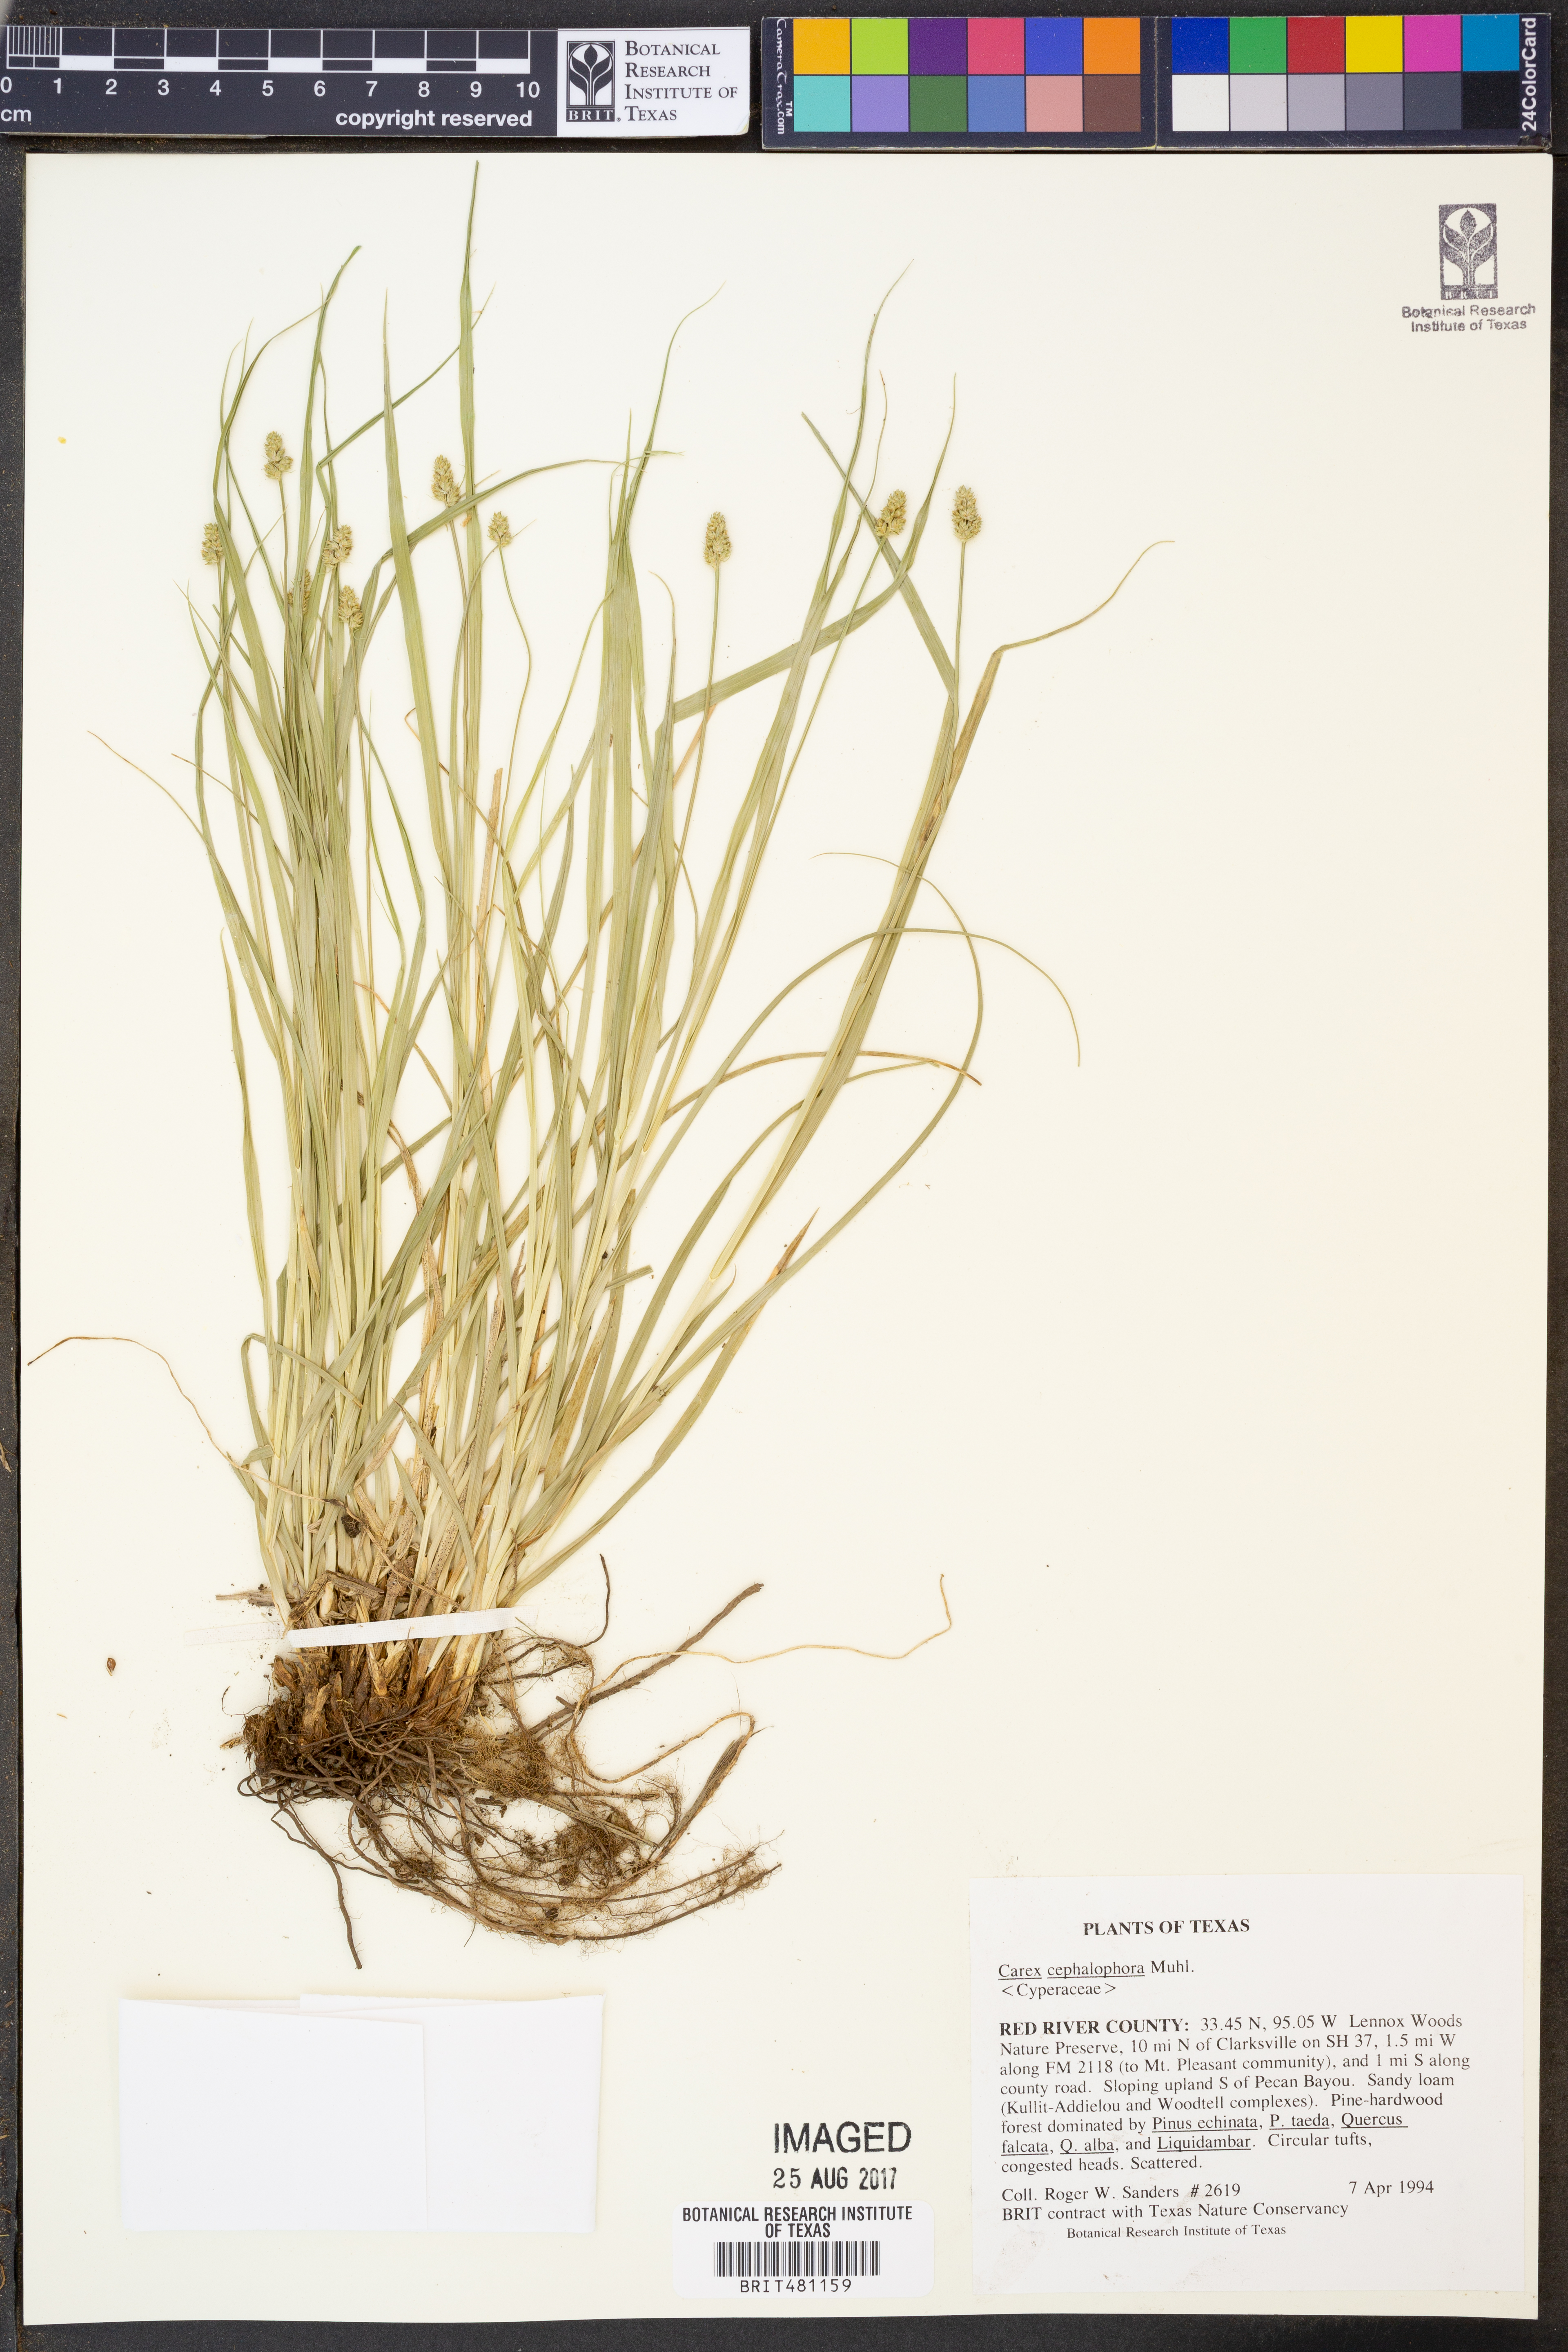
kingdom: Plantae
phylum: Tracheophyta
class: Liliopsida
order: Poales
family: Cyperaceae
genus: Carex
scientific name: Carex cephalophora
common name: Oval-headed sedge
